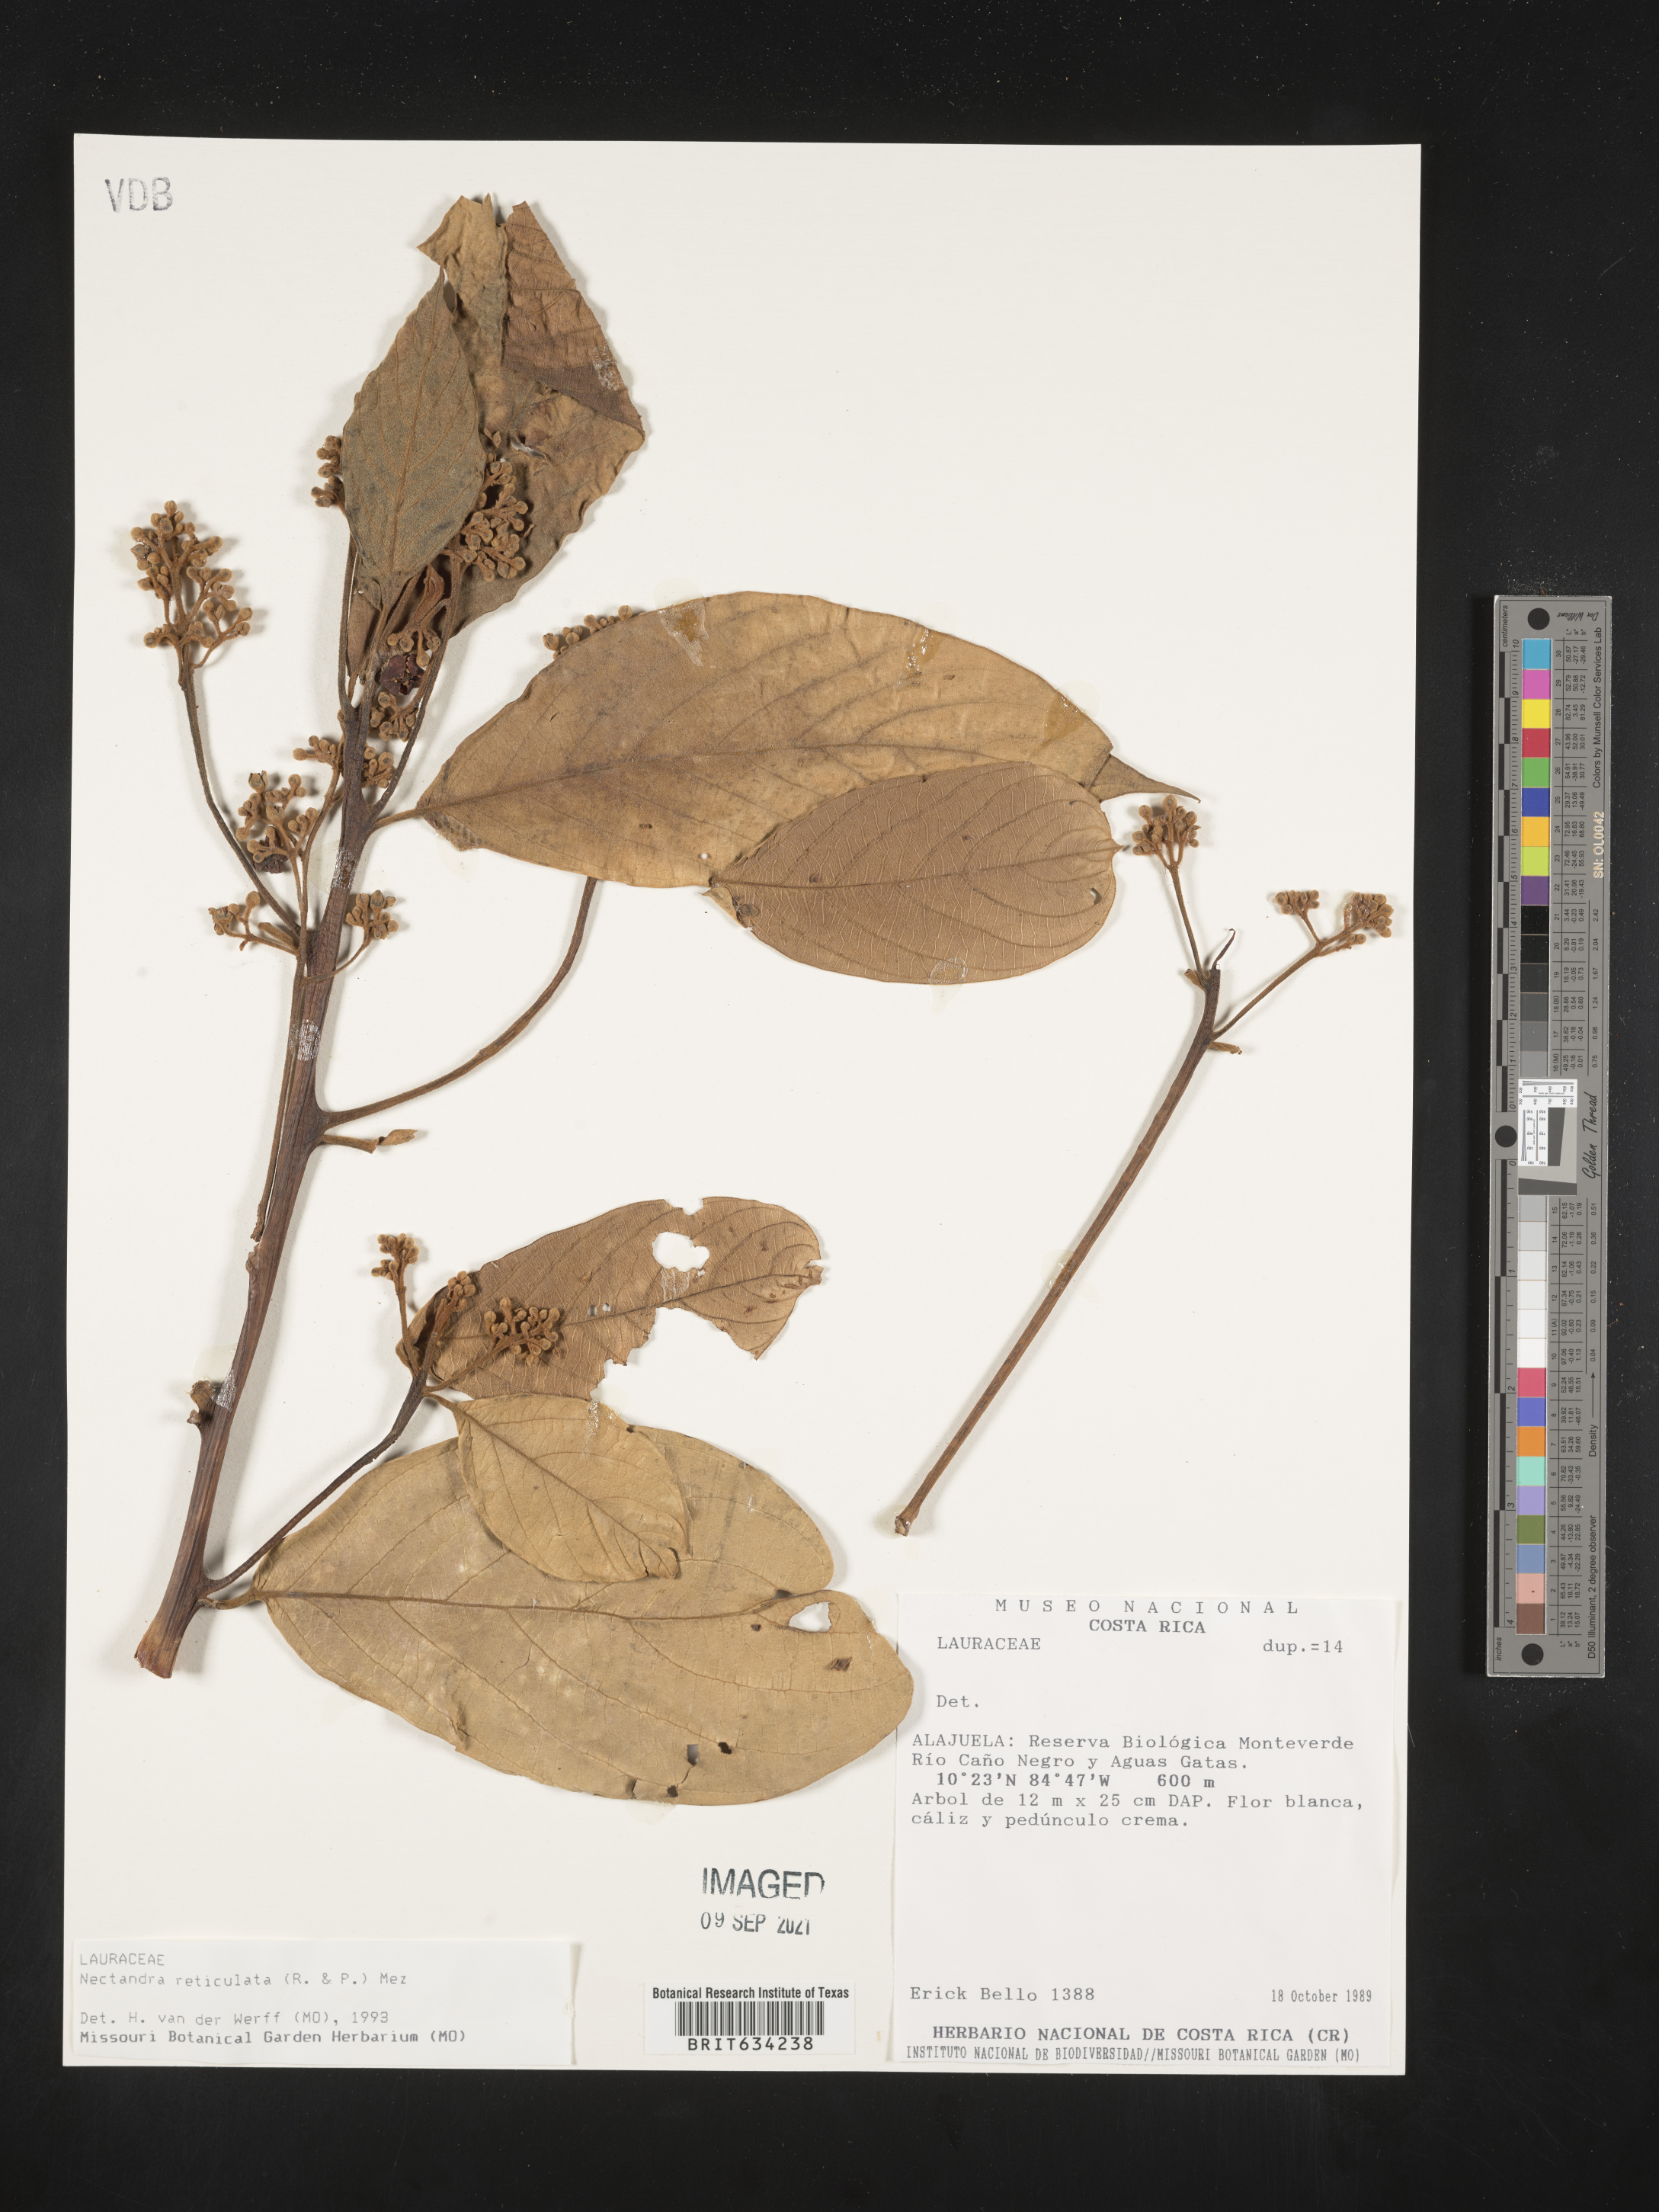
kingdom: Plantae
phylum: Tracheophyta
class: Magnoliopsida
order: Laurales
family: Lauraceae
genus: Nectandra
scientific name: Nectandra
